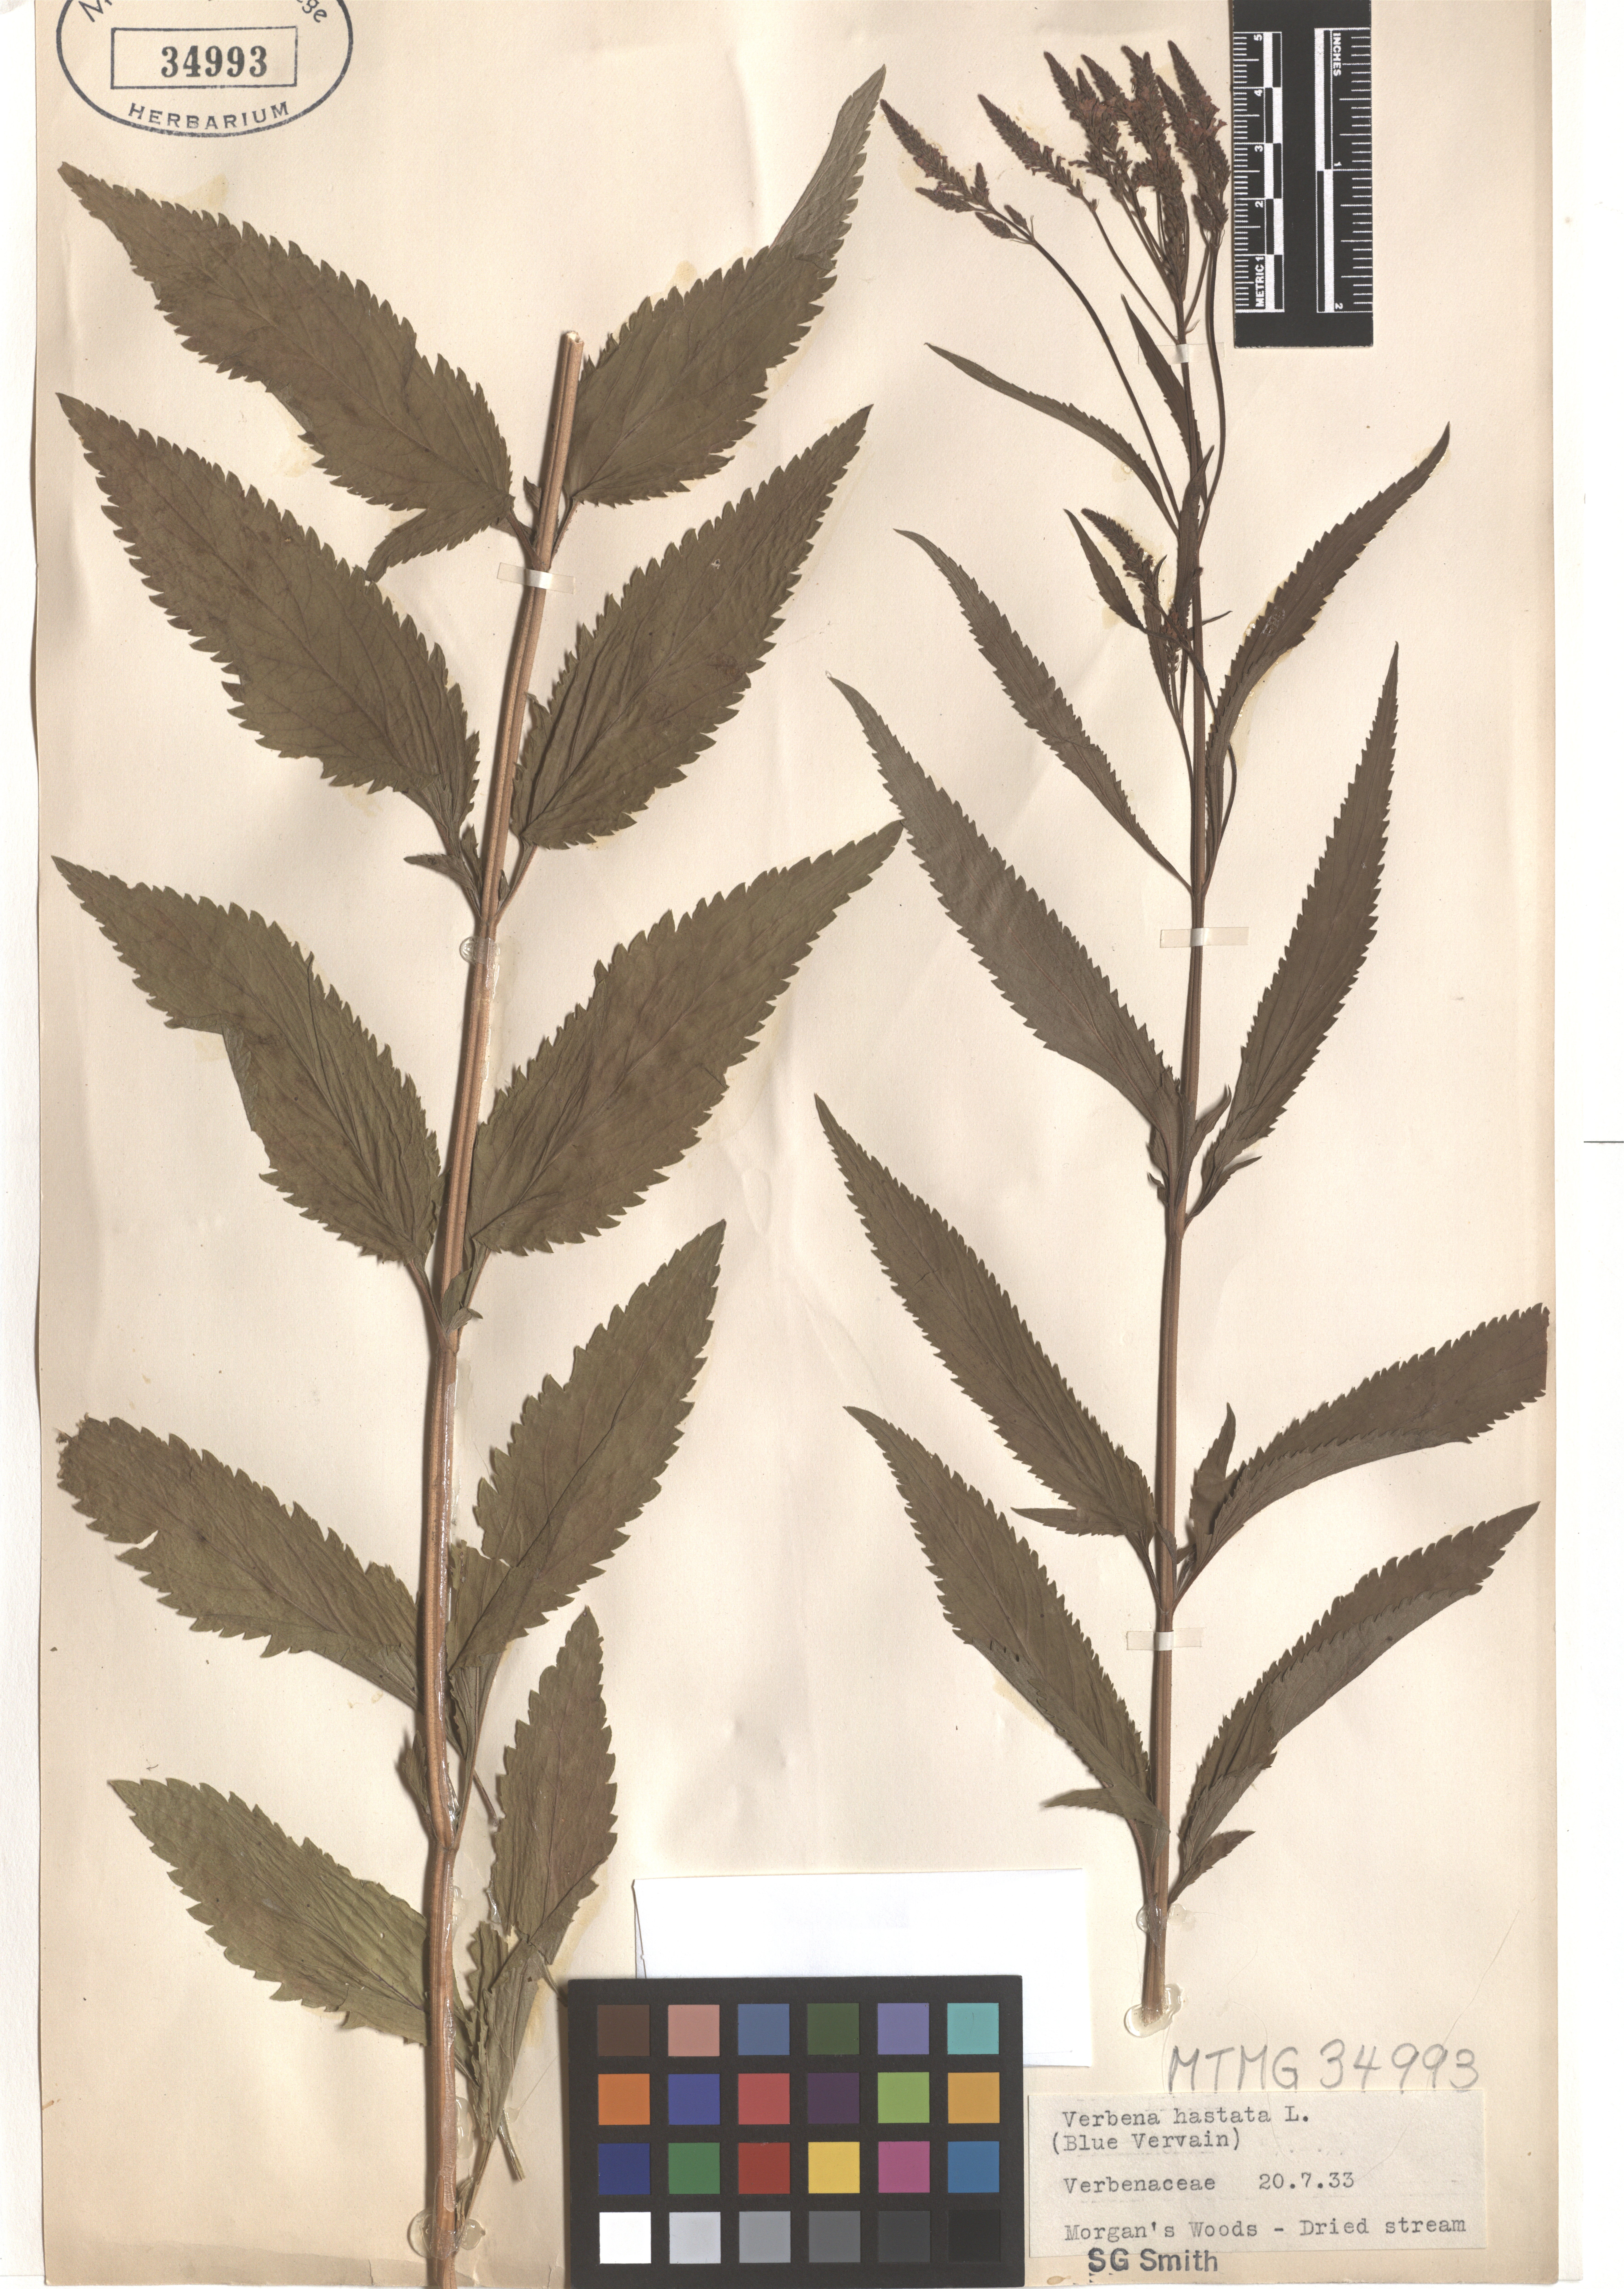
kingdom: Plantae
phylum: Tracheophyta
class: Magnoliopsida
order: Lamiales
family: Verbenaceae
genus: Verbena
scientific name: Verbena hastata
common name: American blue vervain
